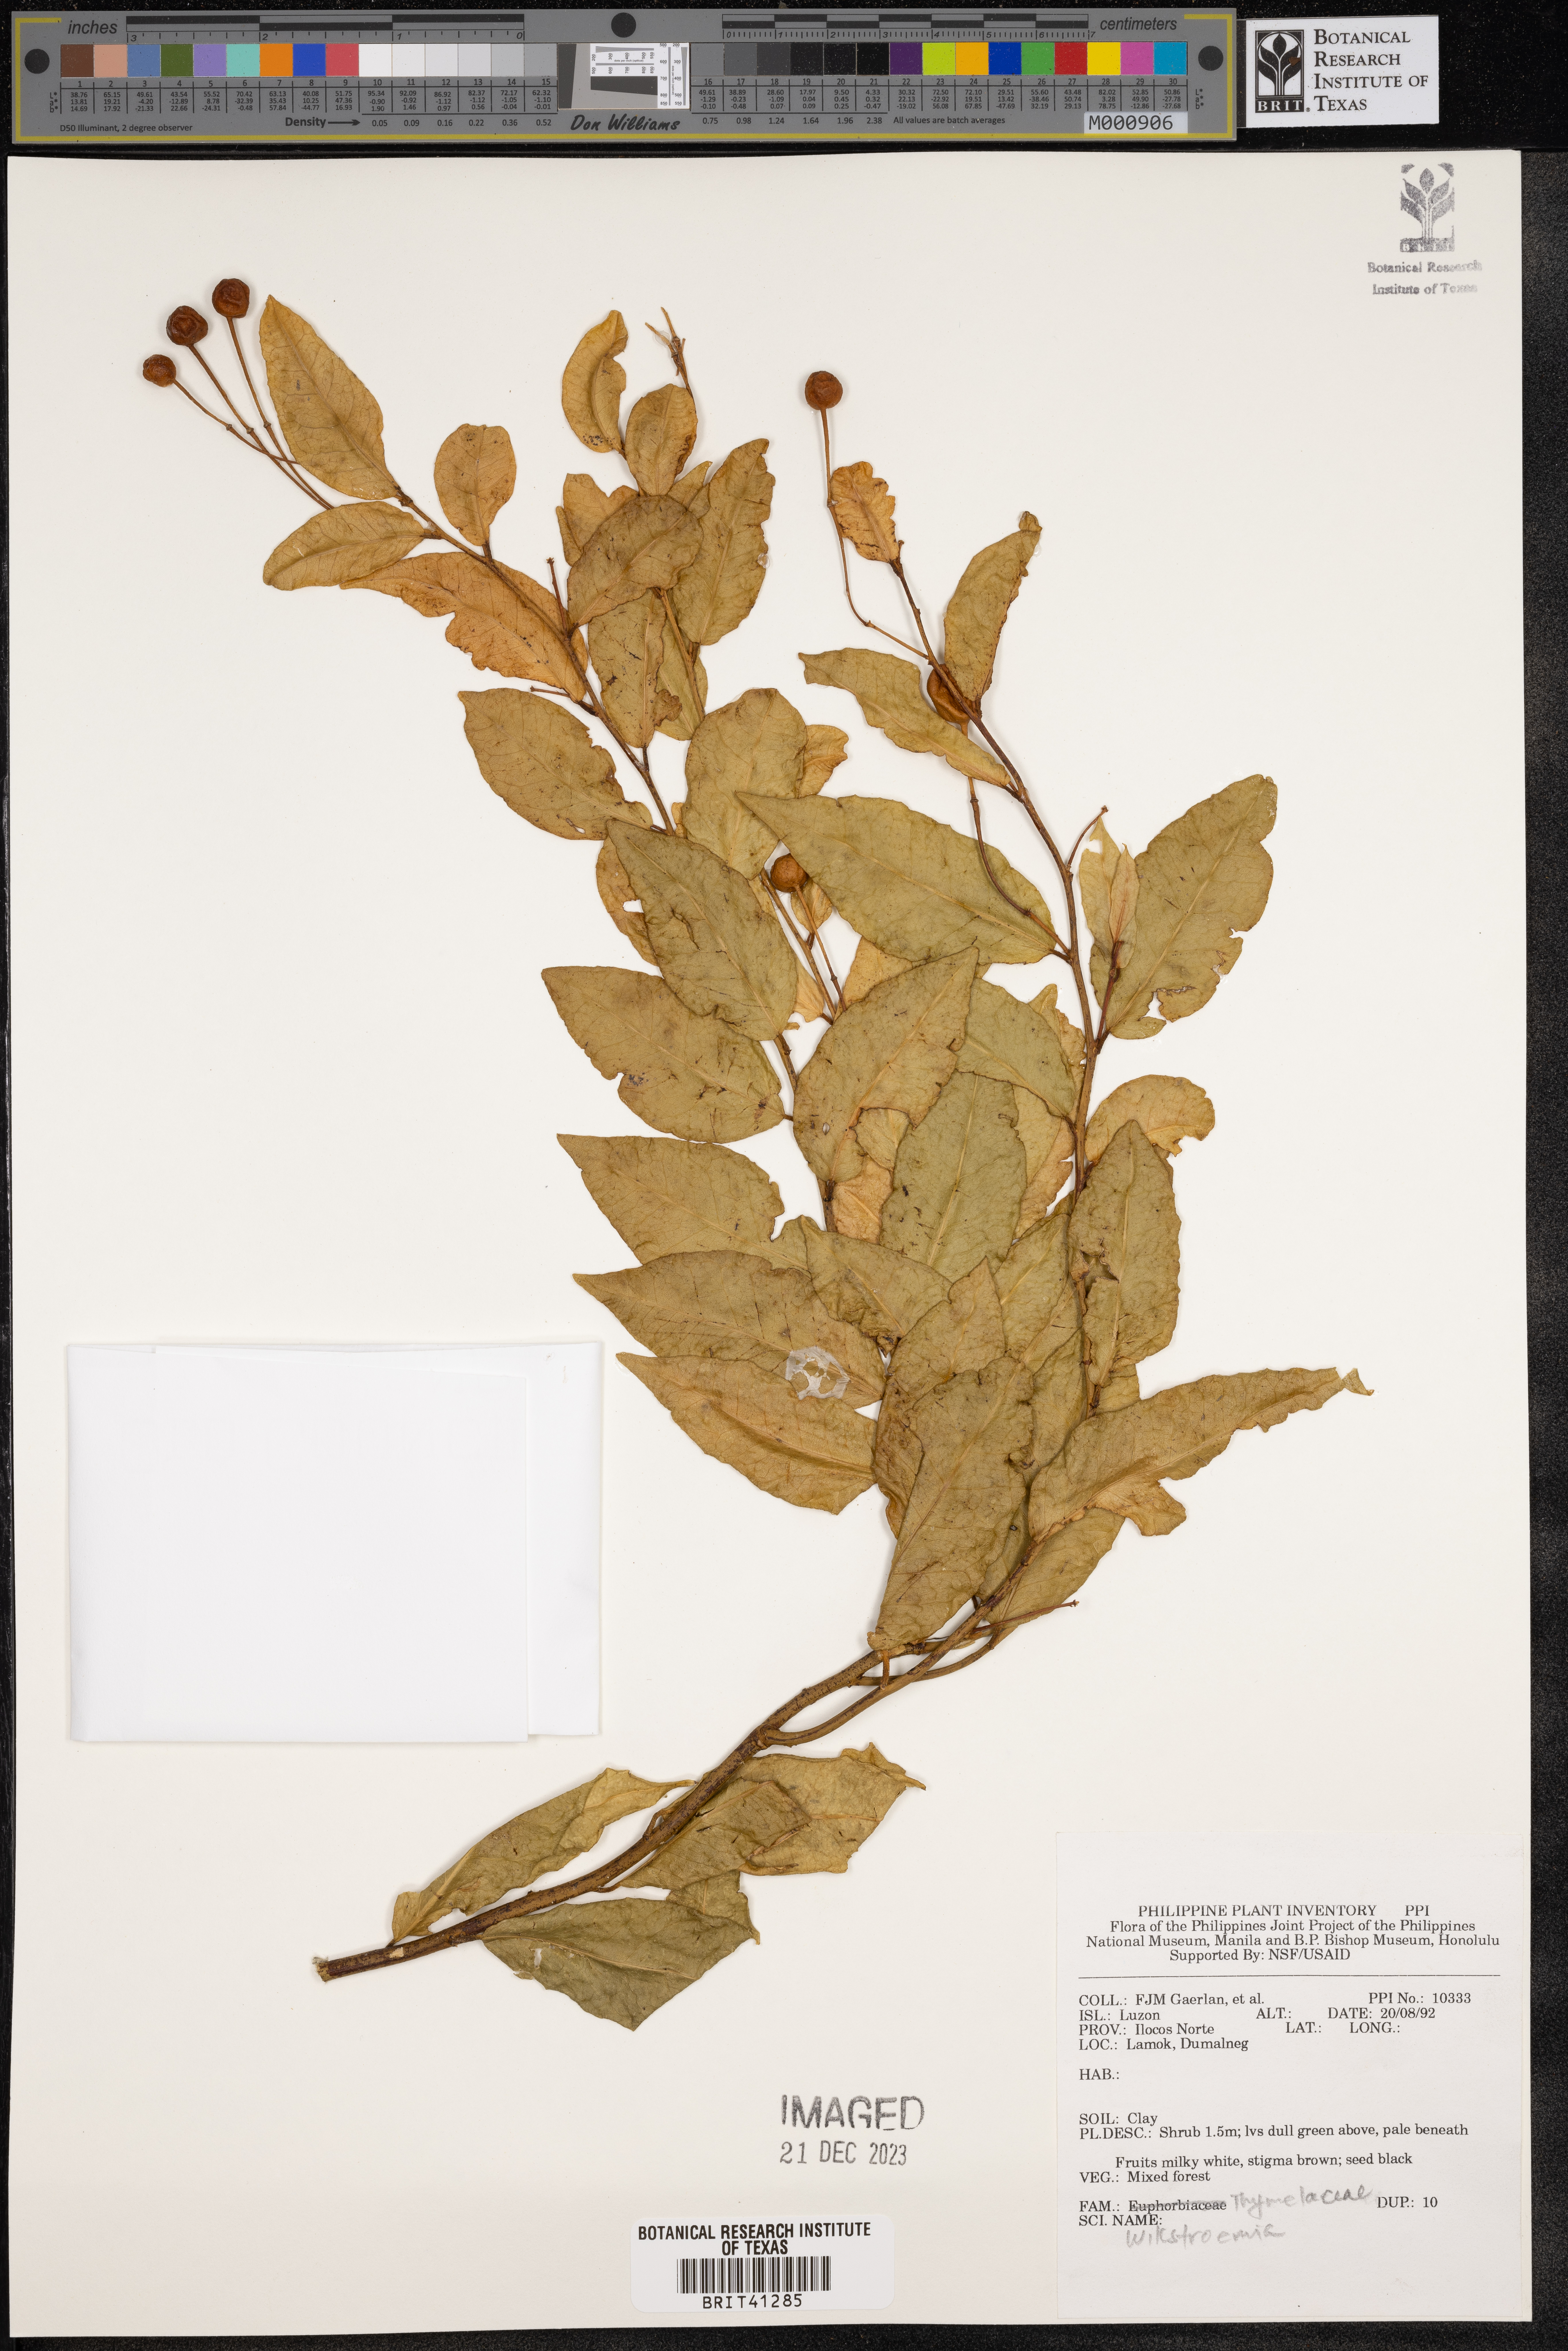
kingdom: Plantae
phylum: Tracheophyta
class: Magnoliopsida
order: Malvales
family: Thymelaeaceae
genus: Wikstroemia
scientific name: Wikstroemia
